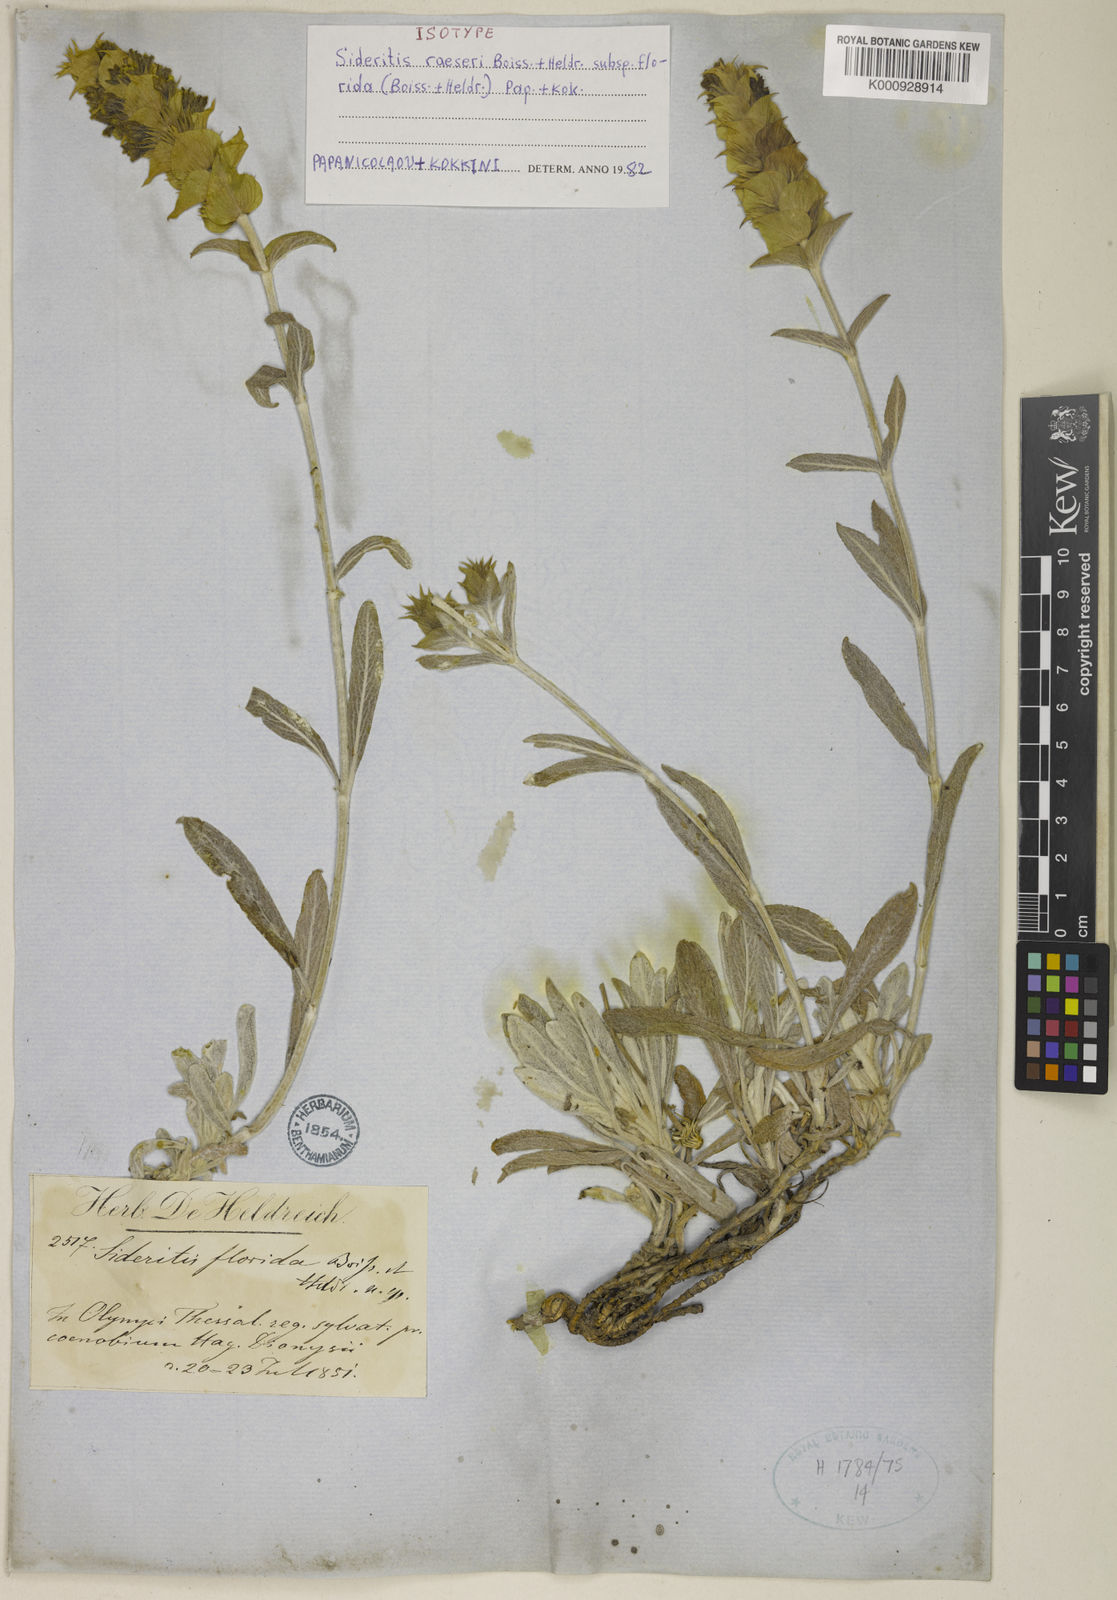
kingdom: Plantae
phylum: Tracheophyta
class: Magnoliopsida
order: Lamiales
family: Lamiaceae
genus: Sideritis
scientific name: Sideritis syriaca
